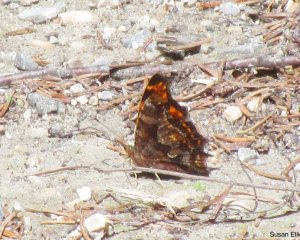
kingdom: Animalia
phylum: Arthropoda
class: Insecta
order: Lepidoptera
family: Nymphalidae
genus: Polygonia
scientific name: Polygonia comma
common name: Eastern Comma
